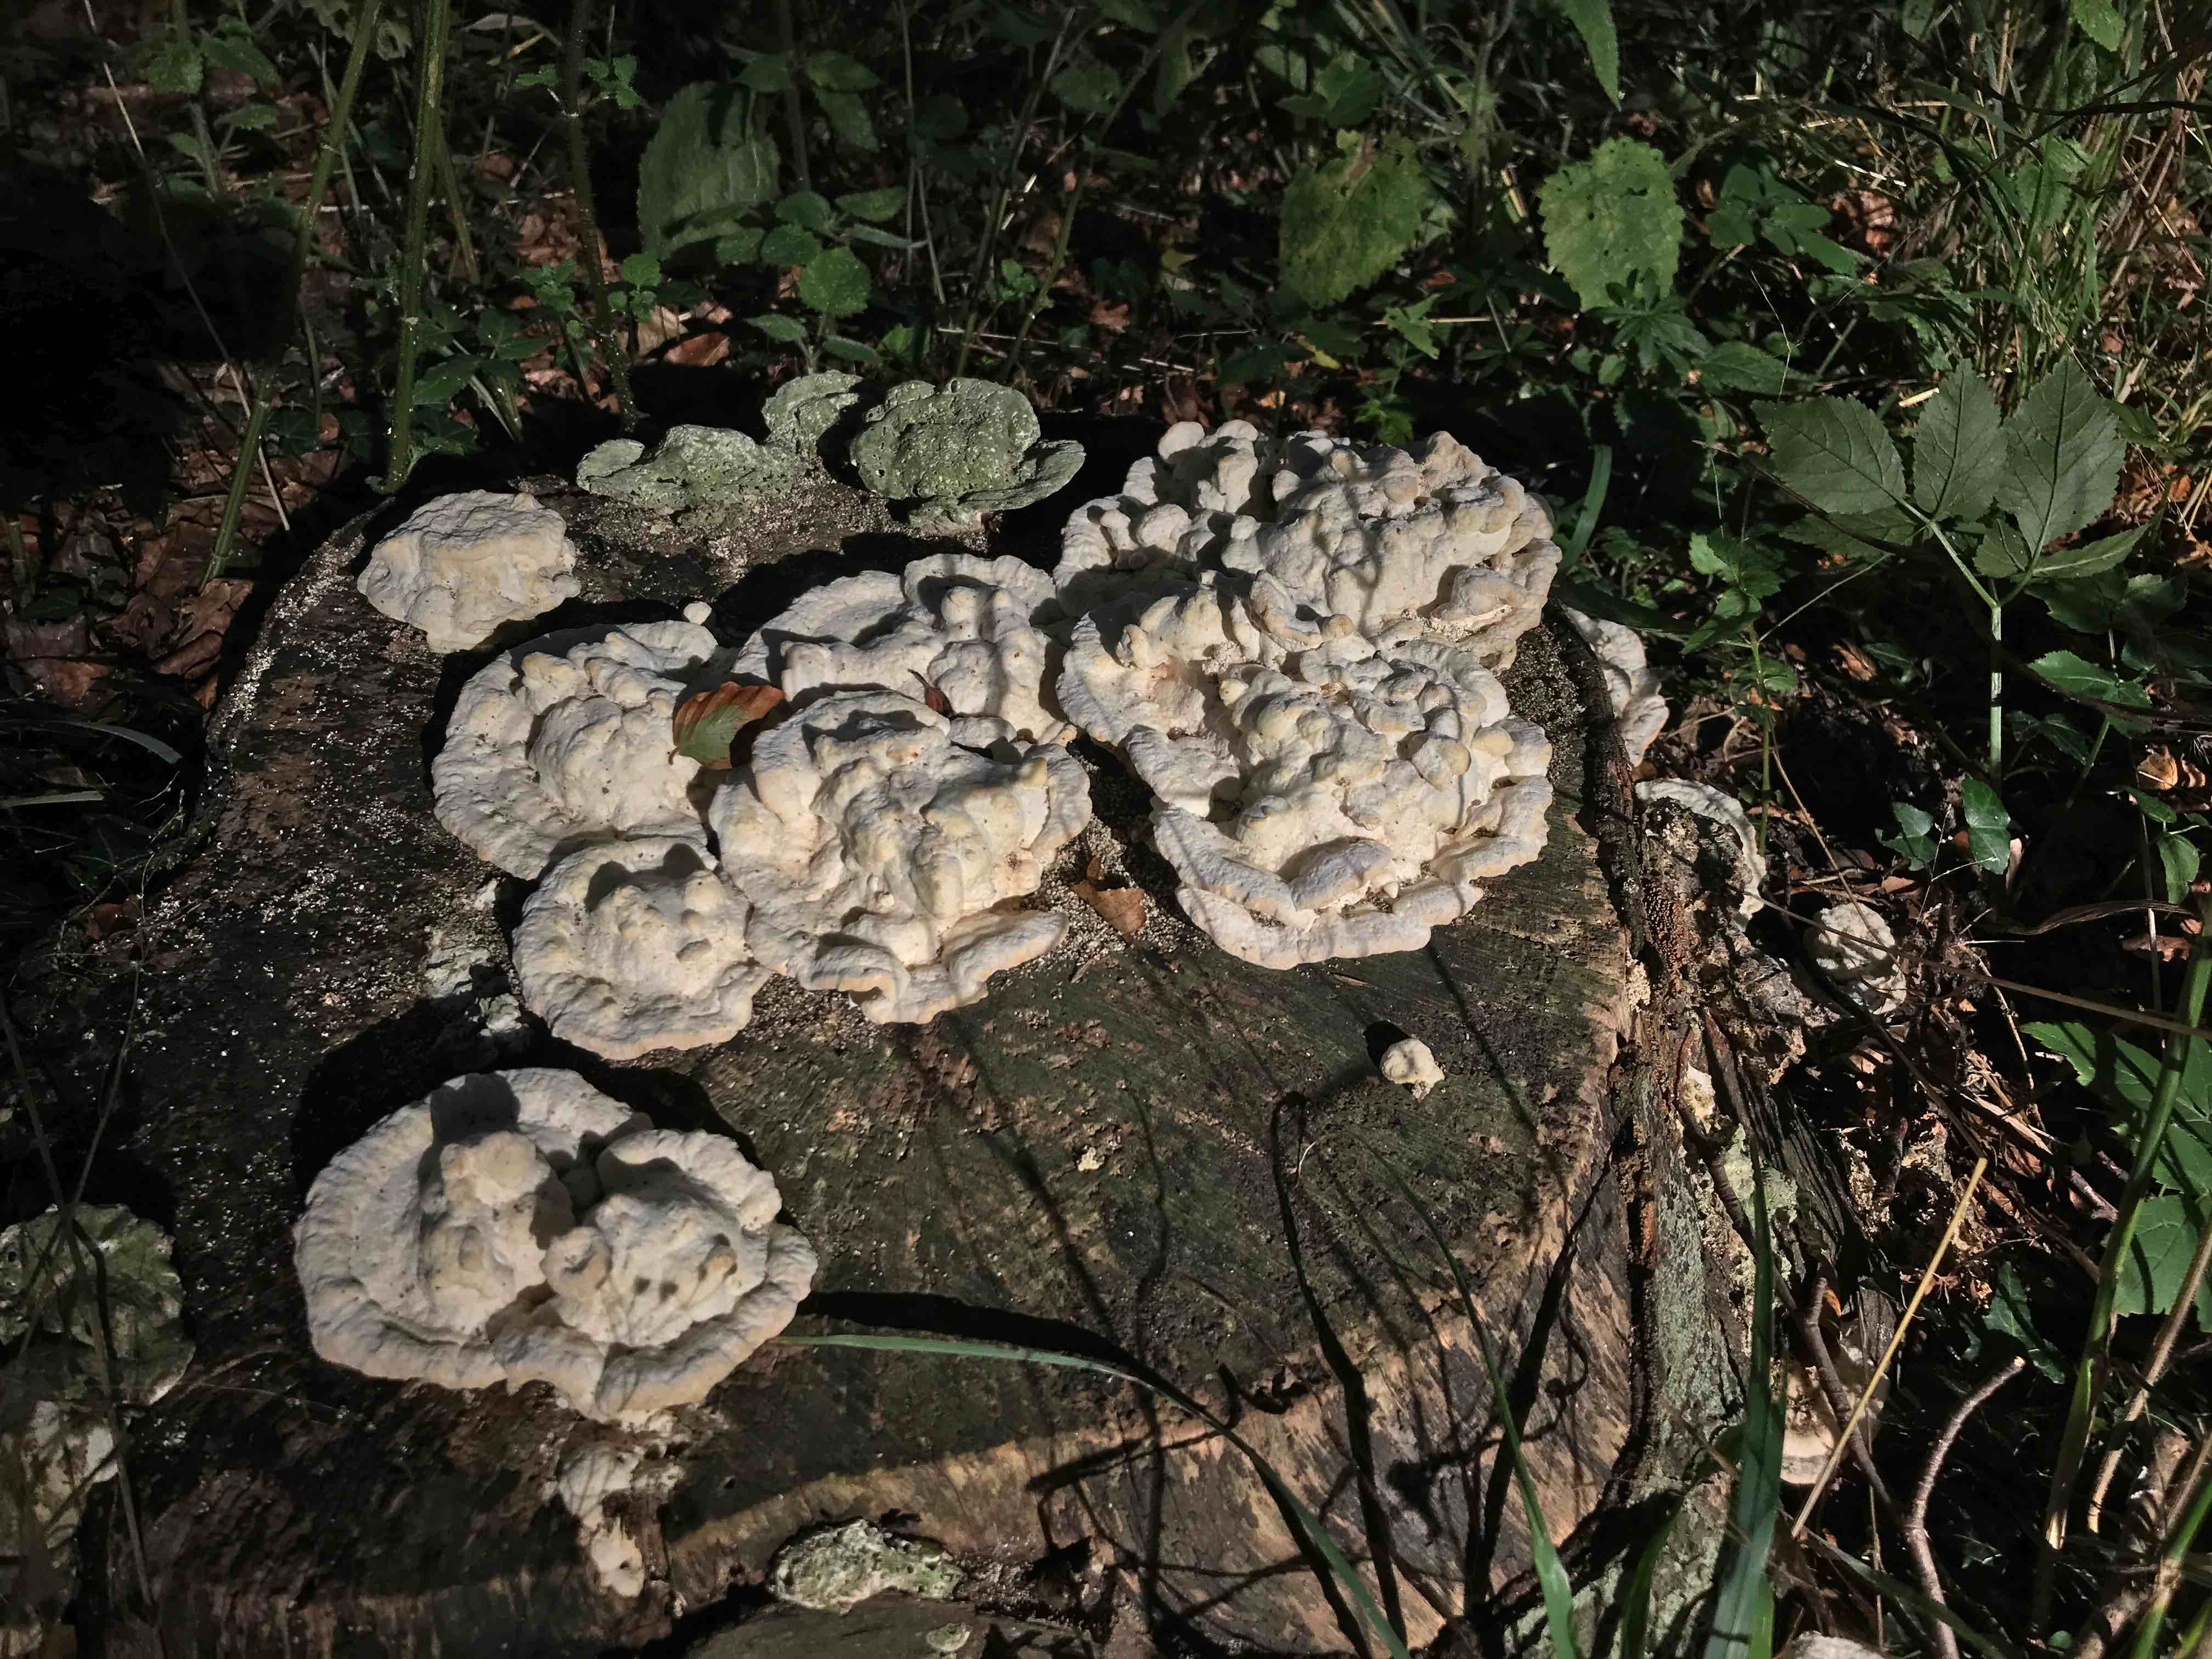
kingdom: Fungi
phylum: Basidiomycota
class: Agaricomycetes
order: Polyporales
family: Polyporaceae
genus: Trametes
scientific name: Trametes gibbosa
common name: puklet læderporesvamp
